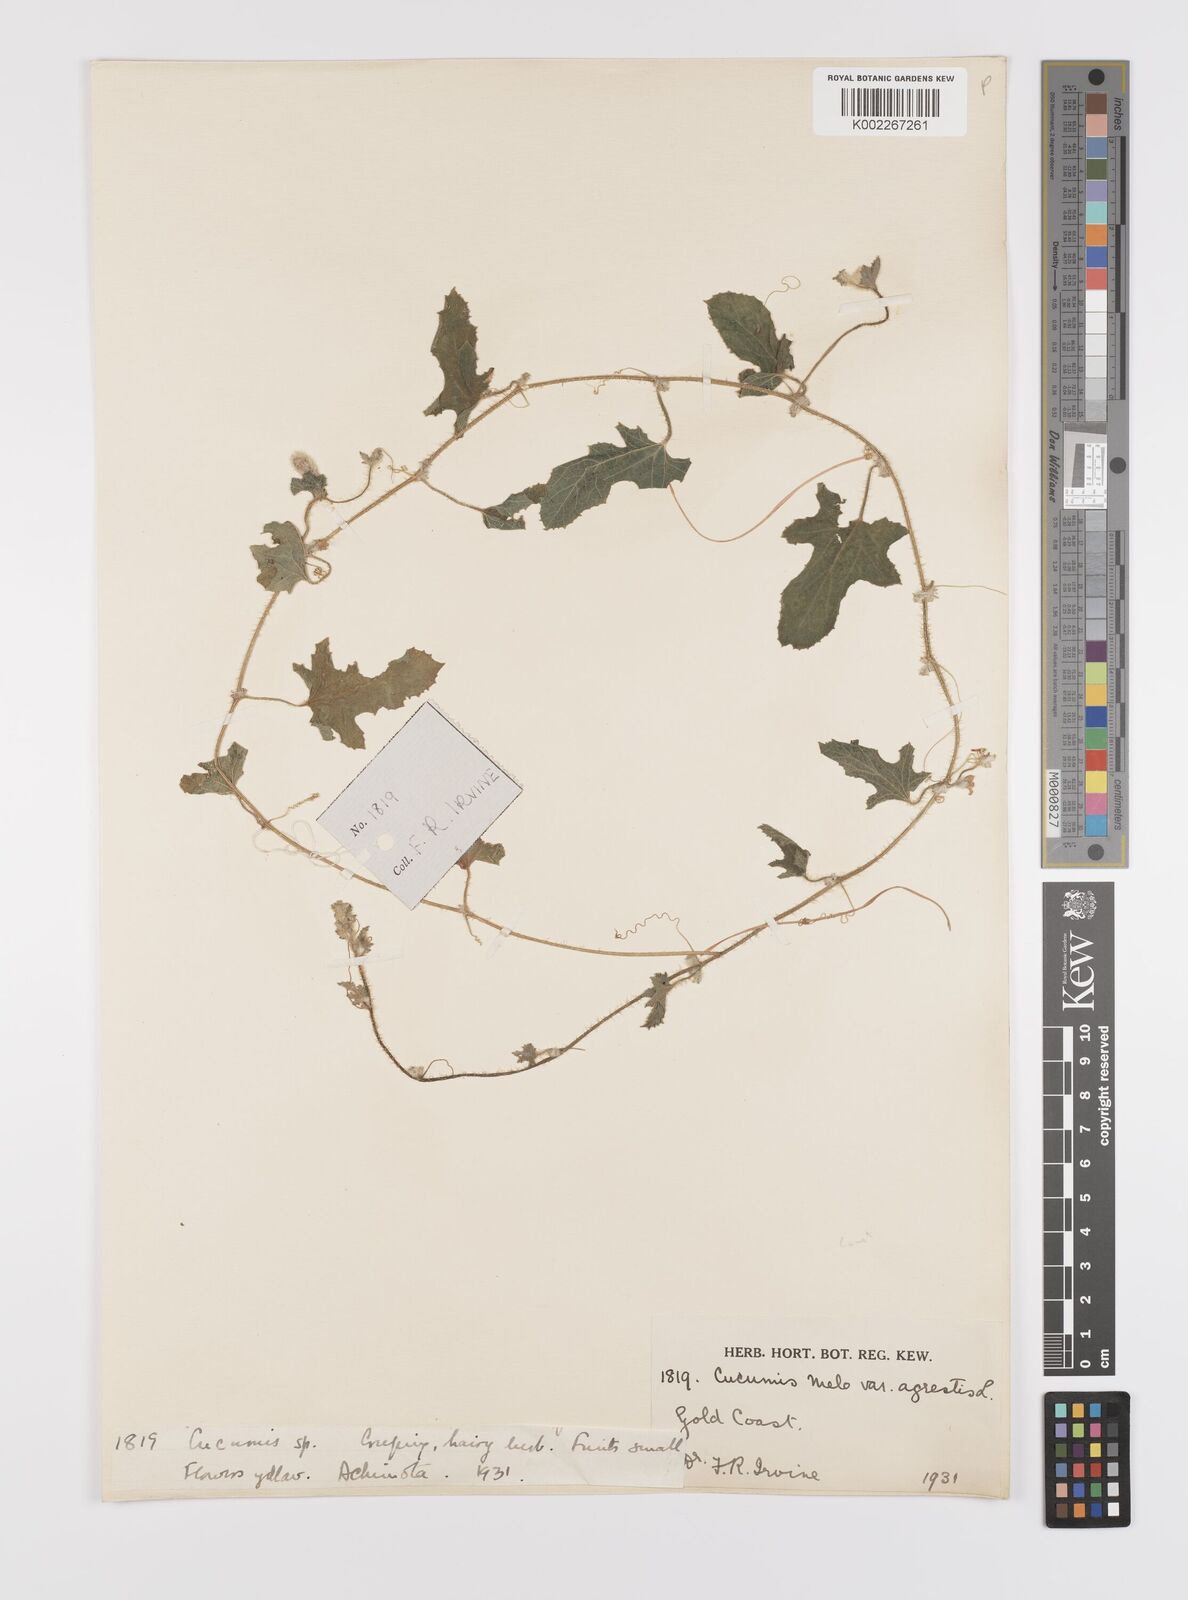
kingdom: Plantae
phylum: Tracheophyta
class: Magnoliopsida
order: Cucurbitales
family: Cucurbitaceae
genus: Cucumis
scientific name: Cucumis melo
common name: Melon
